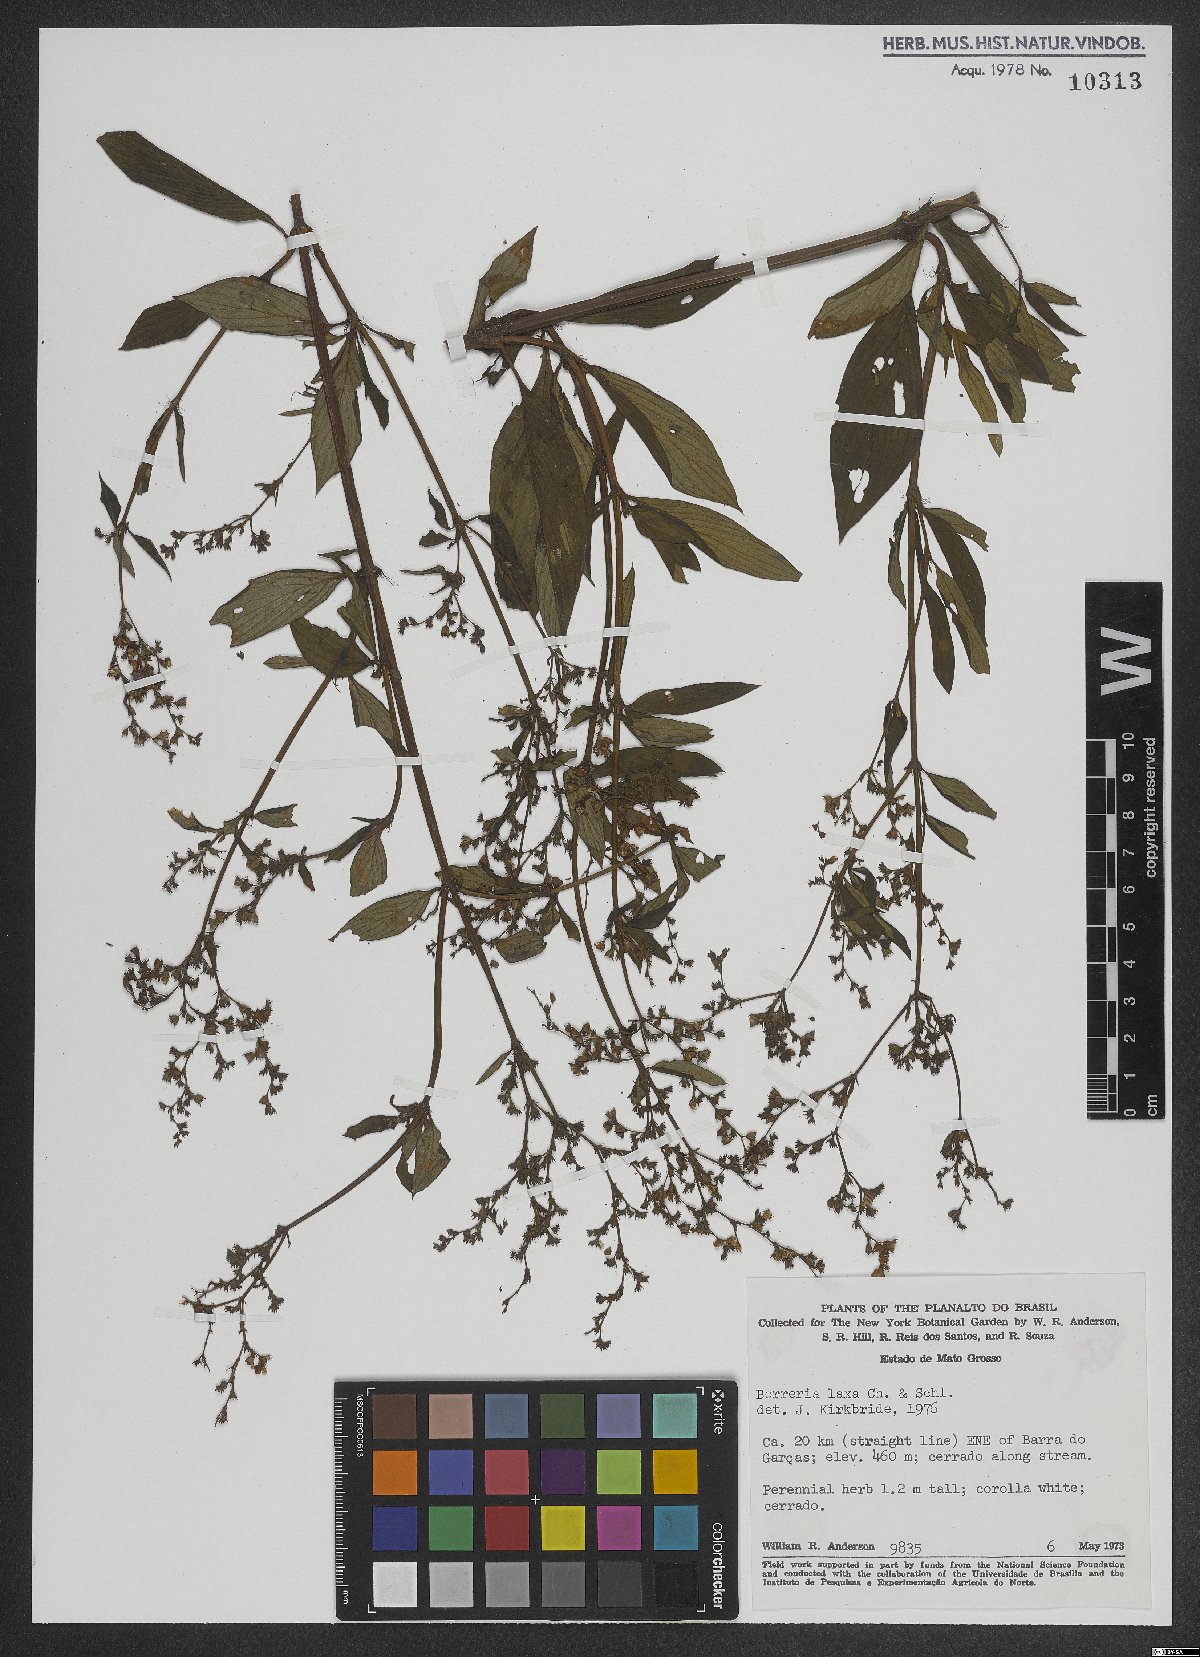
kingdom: Plantae
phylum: Tracheophyta
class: Magnoliopsida
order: Gentianales
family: Rubiaceae
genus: Galianthe
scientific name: Galianthe laxa
